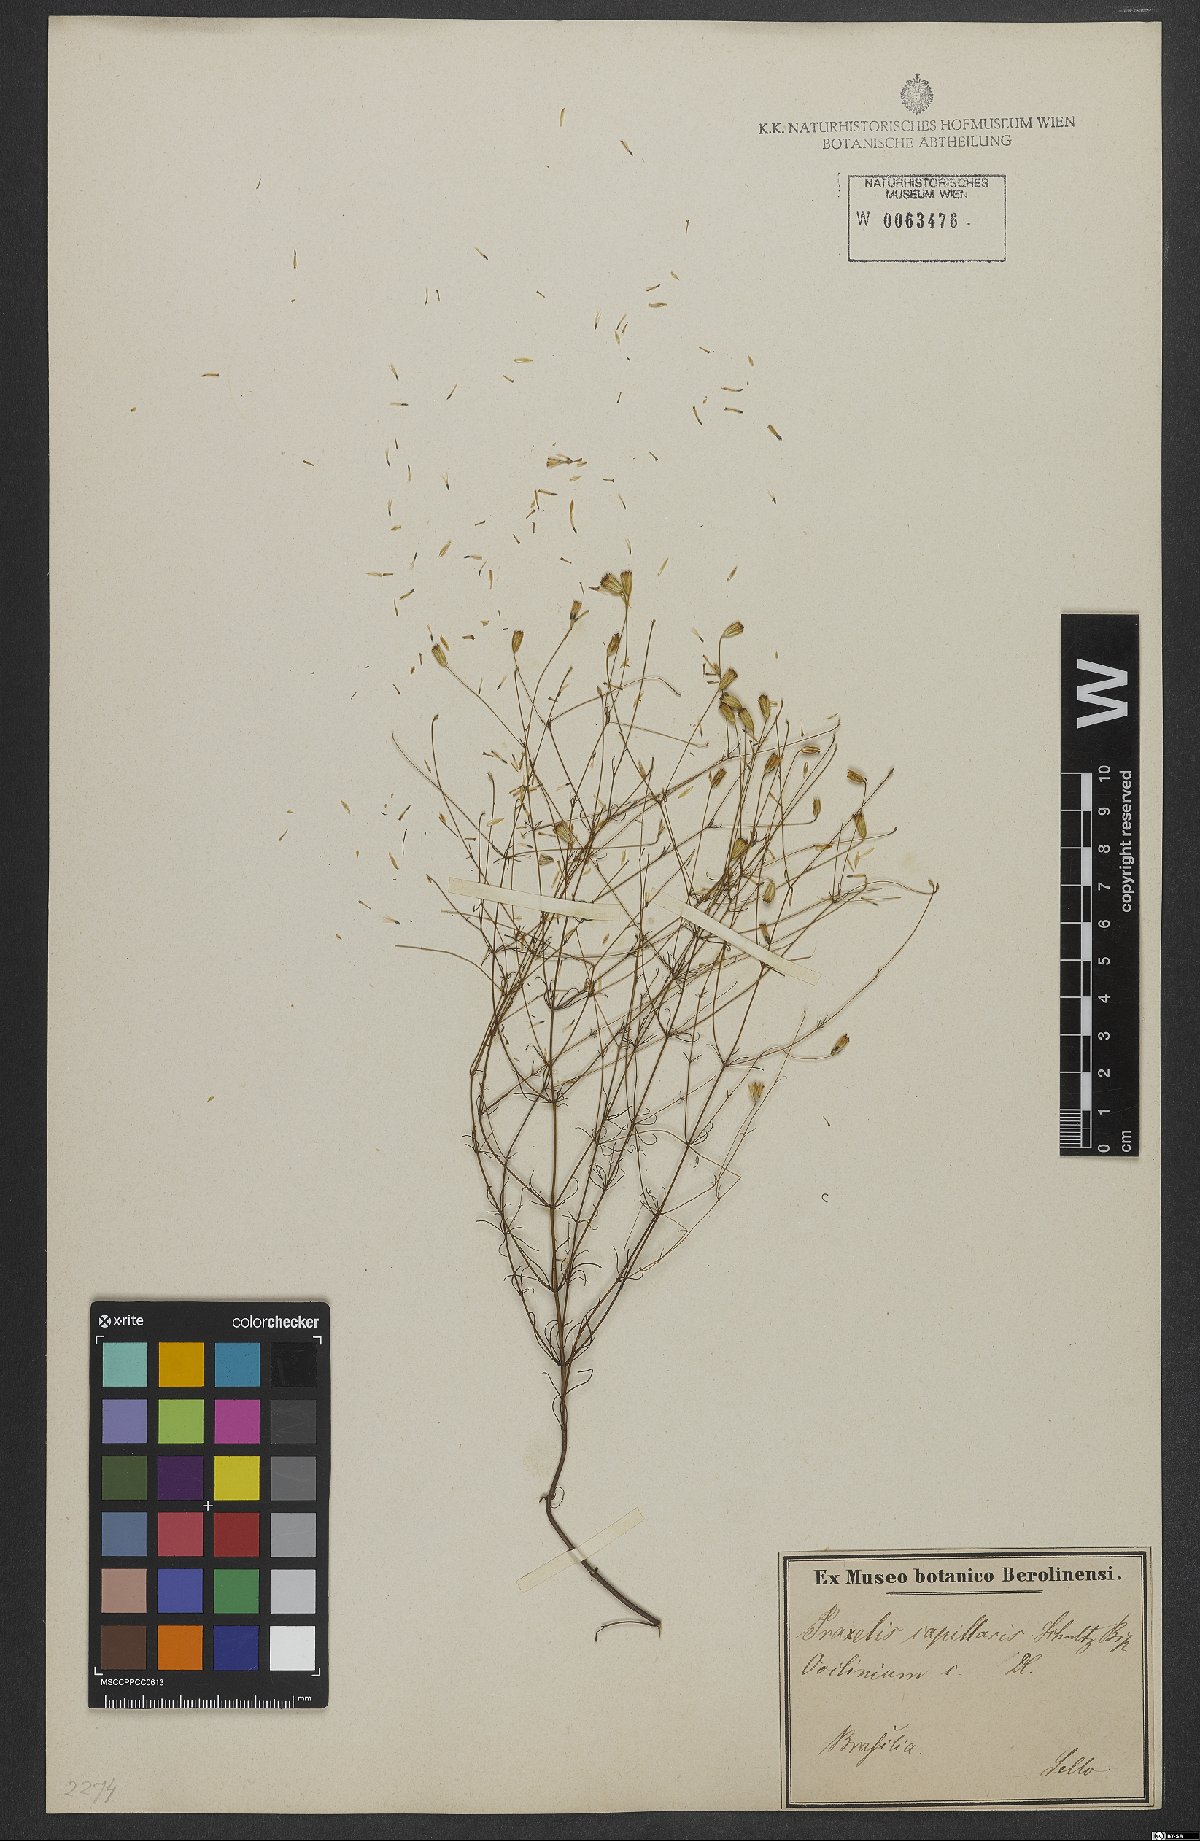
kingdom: Plantae
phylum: Tracheophyta
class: Magnoliopsida
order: Asterales
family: Asteraceae
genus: Praxelis
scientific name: Praxelis capillaris
